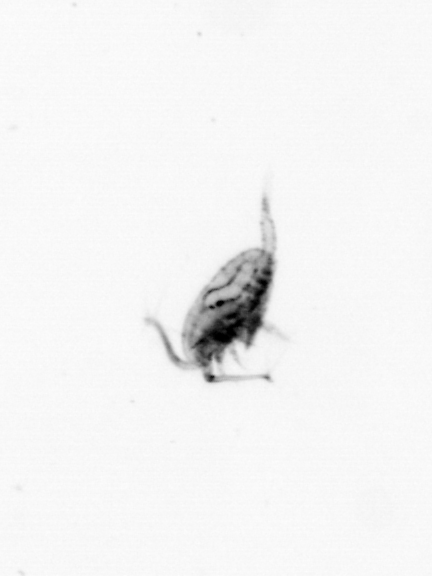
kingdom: Animalia
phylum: Arthropoda
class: Copepoda
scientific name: Copepoda
